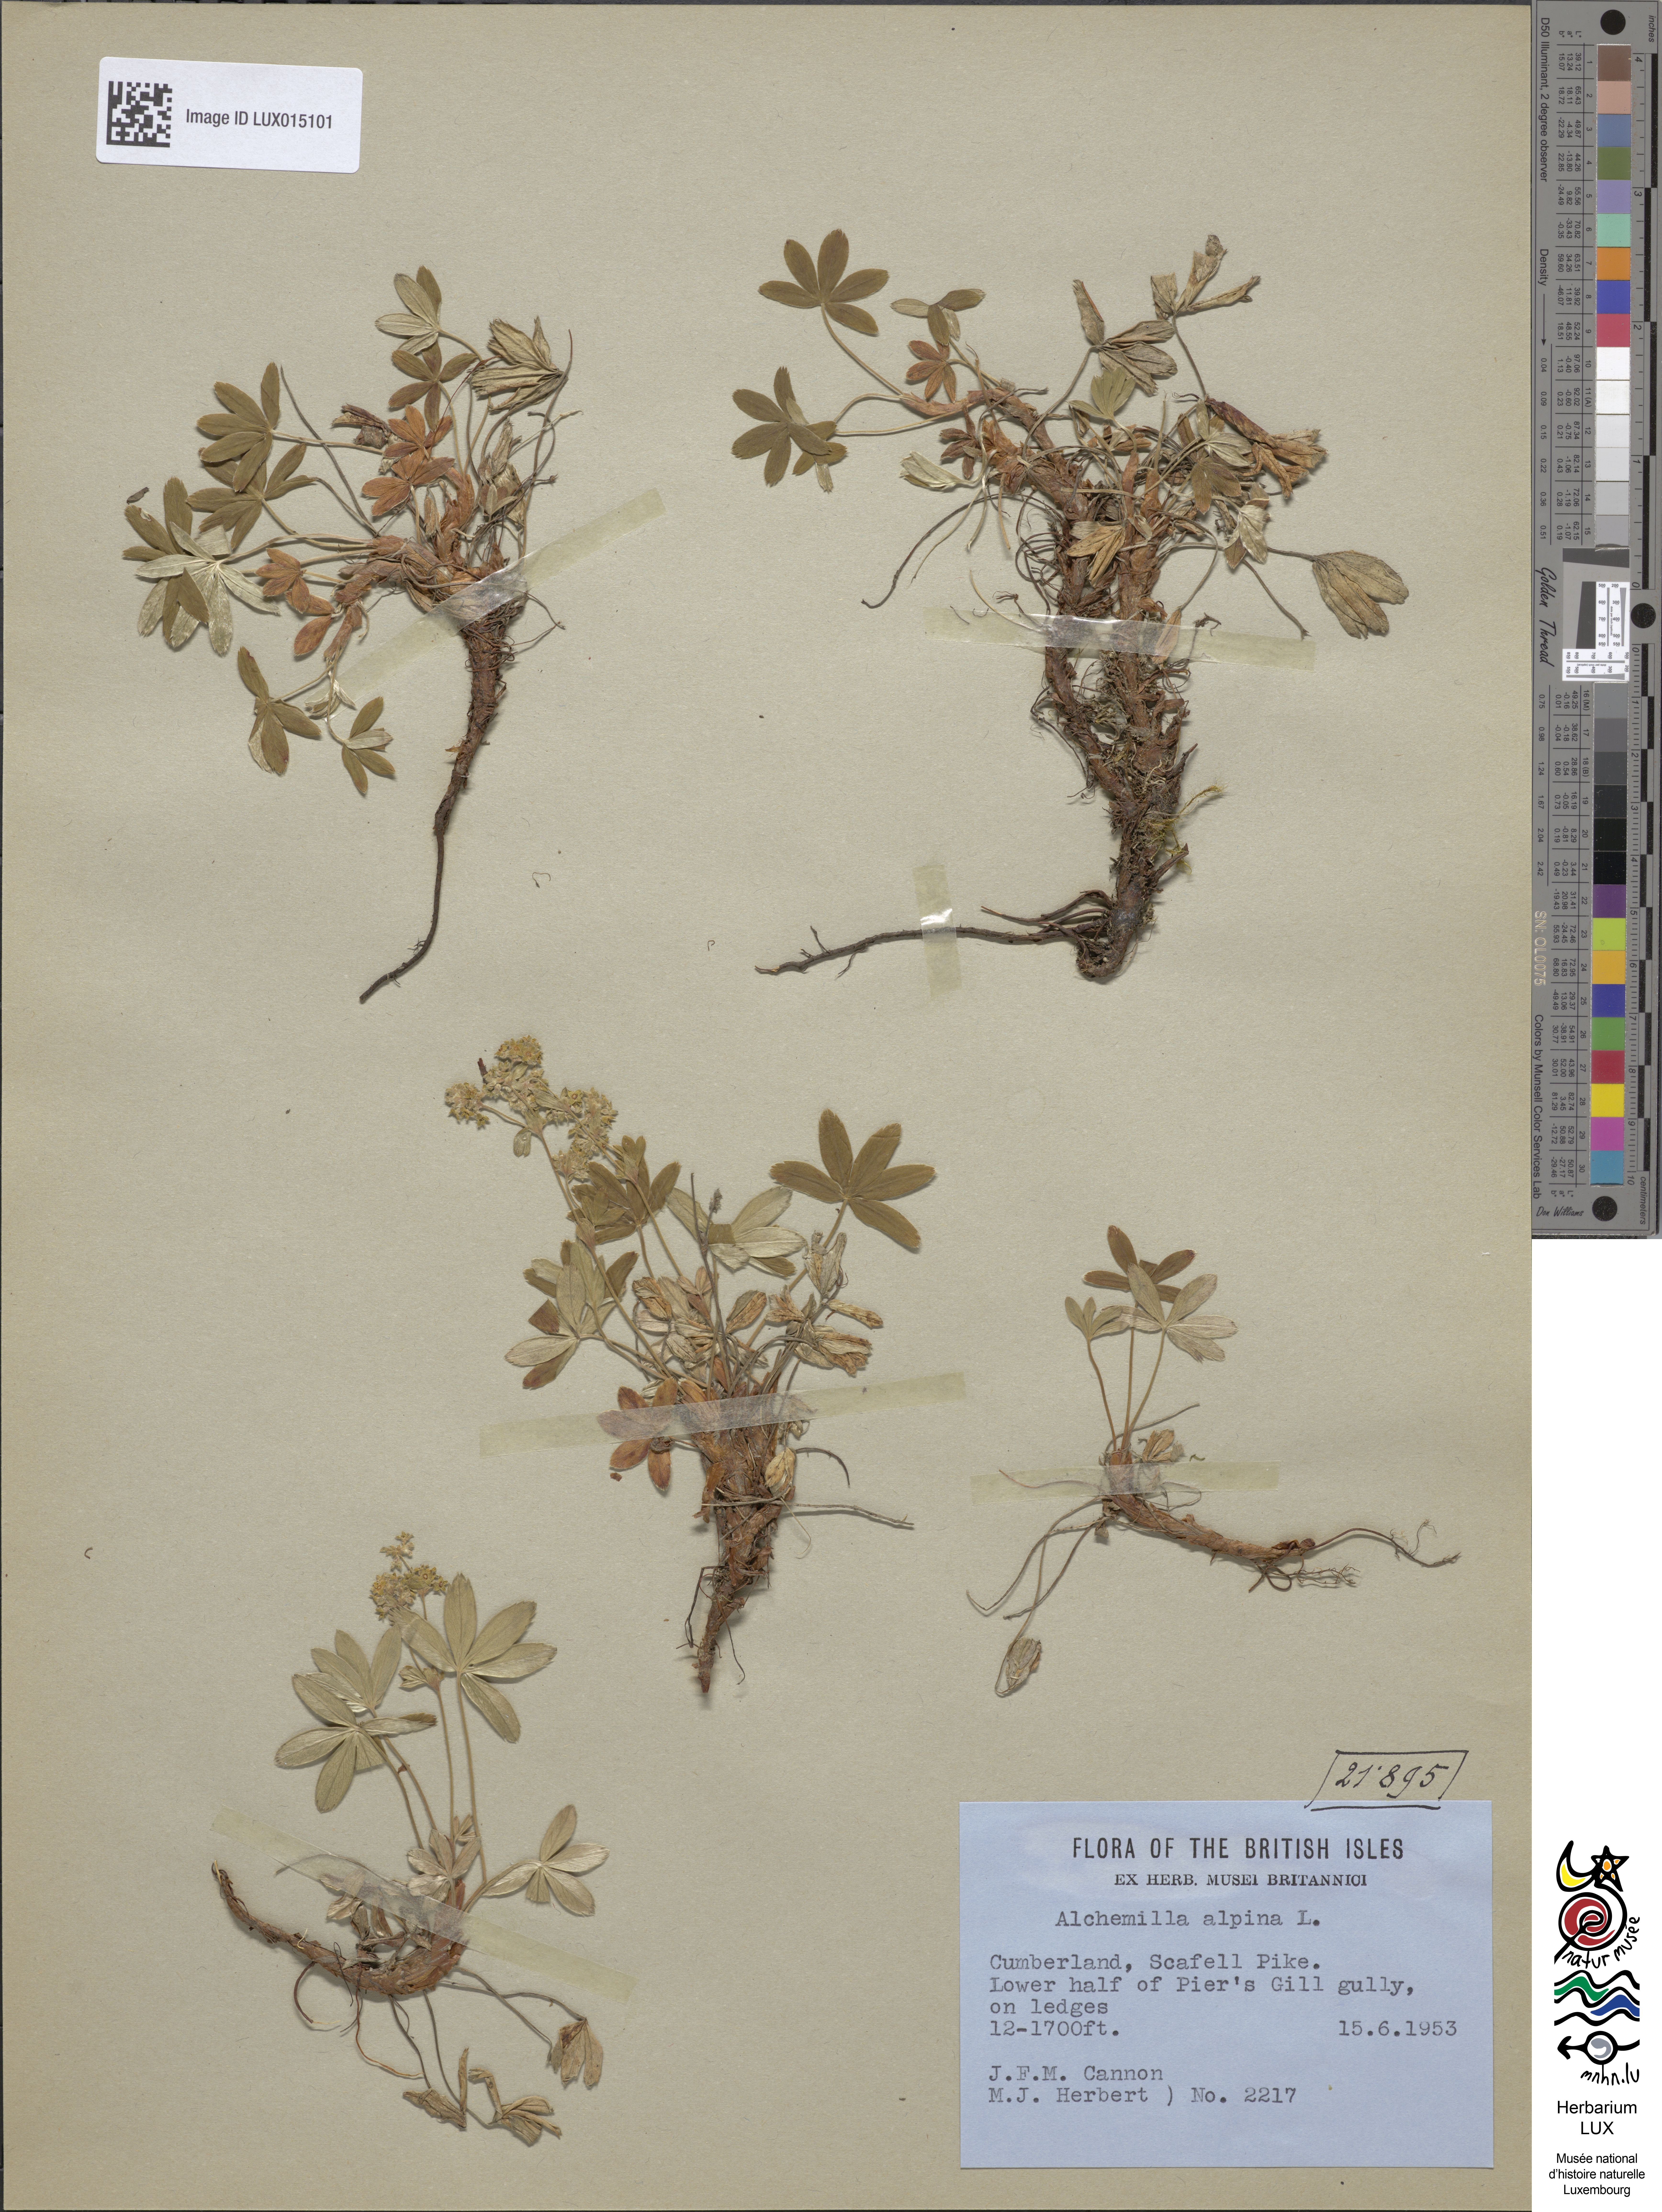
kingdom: Plantae
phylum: Tracheophyta
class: Magnoliopsida
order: Rosales
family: Rosaceae
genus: Alchemilla
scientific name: Alchemilla alpina
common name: Alpine lady's-mantle
